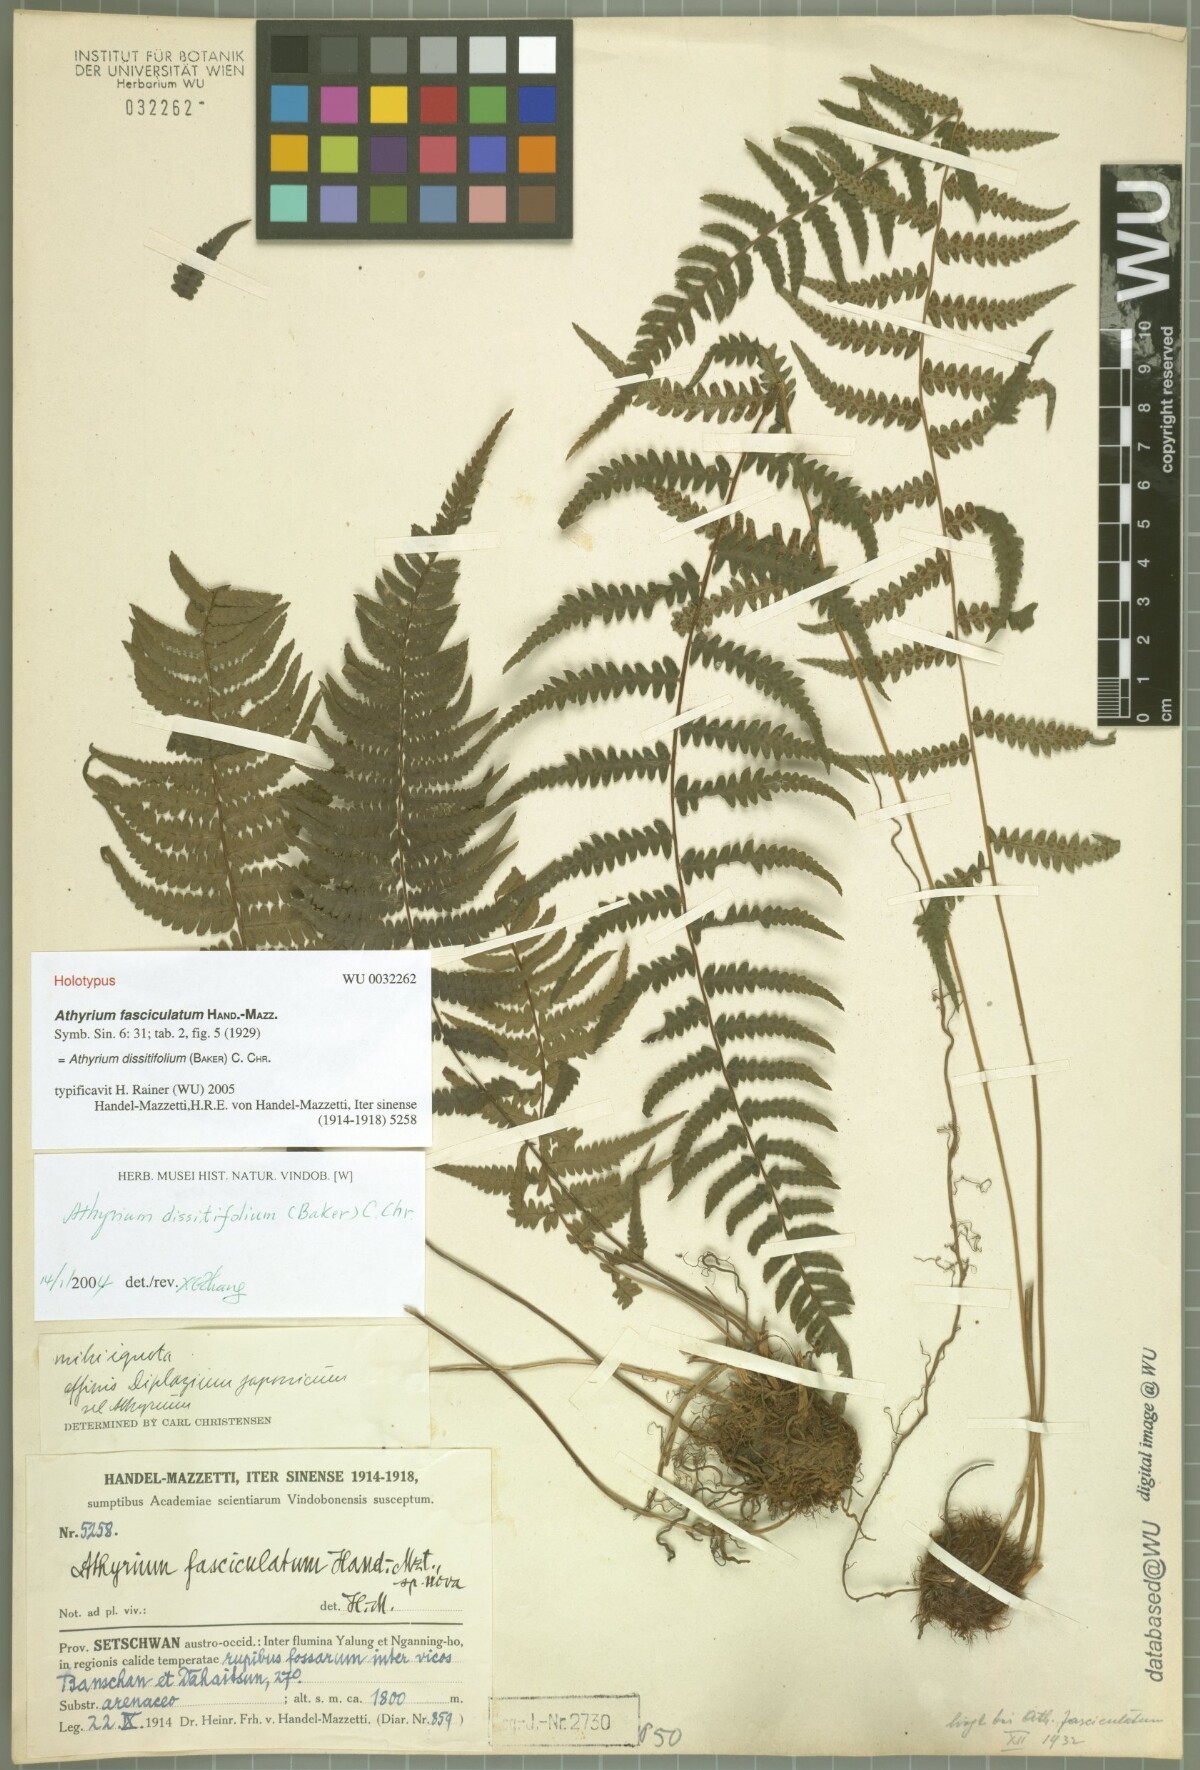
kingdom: Plantae
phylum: Tracheophyta
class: Polypodiopsida
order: Polypodiales
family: Athyriaceae
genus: Athyrium
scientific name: Athyrium dissitifolium
